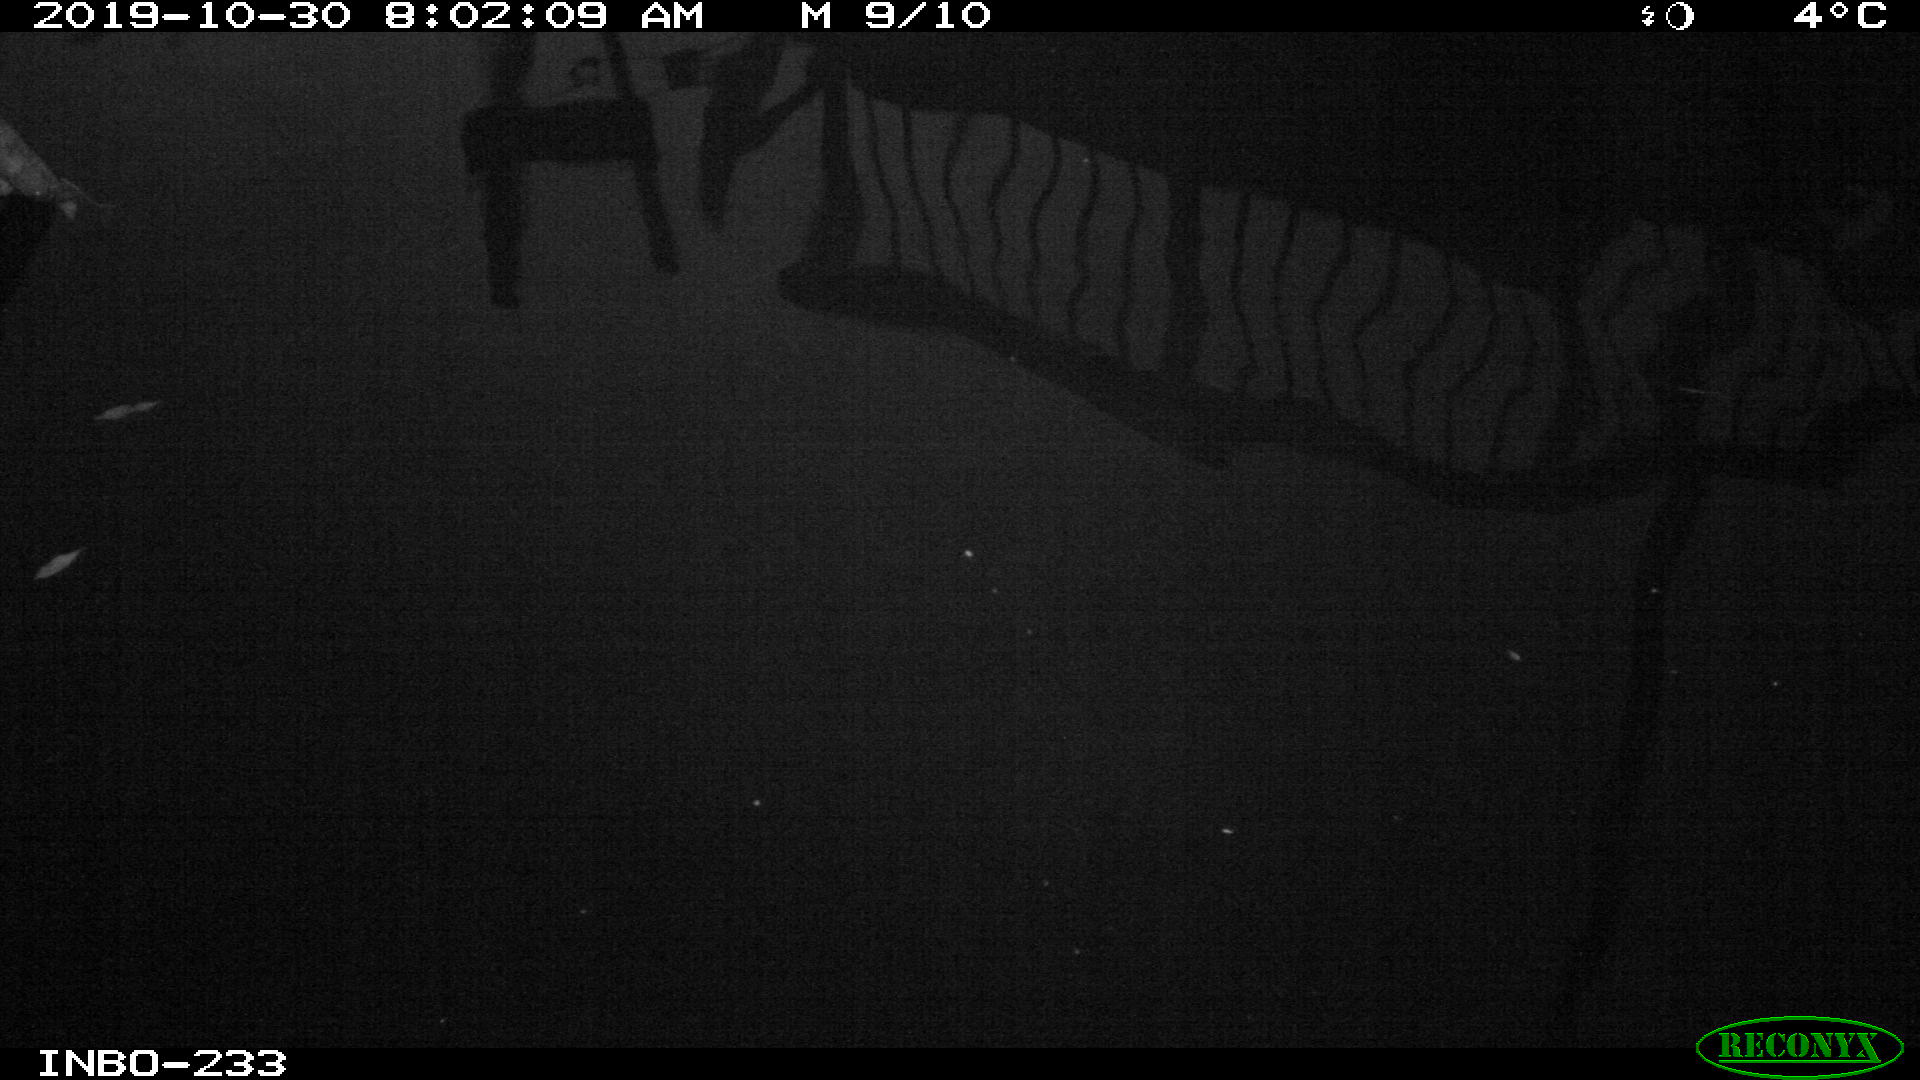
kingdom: Animalia
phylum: Chordata
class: Aves
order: Anseriformes
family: Anatidae
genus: Anas
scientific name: Anas platyrhynchos
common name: Mallard
